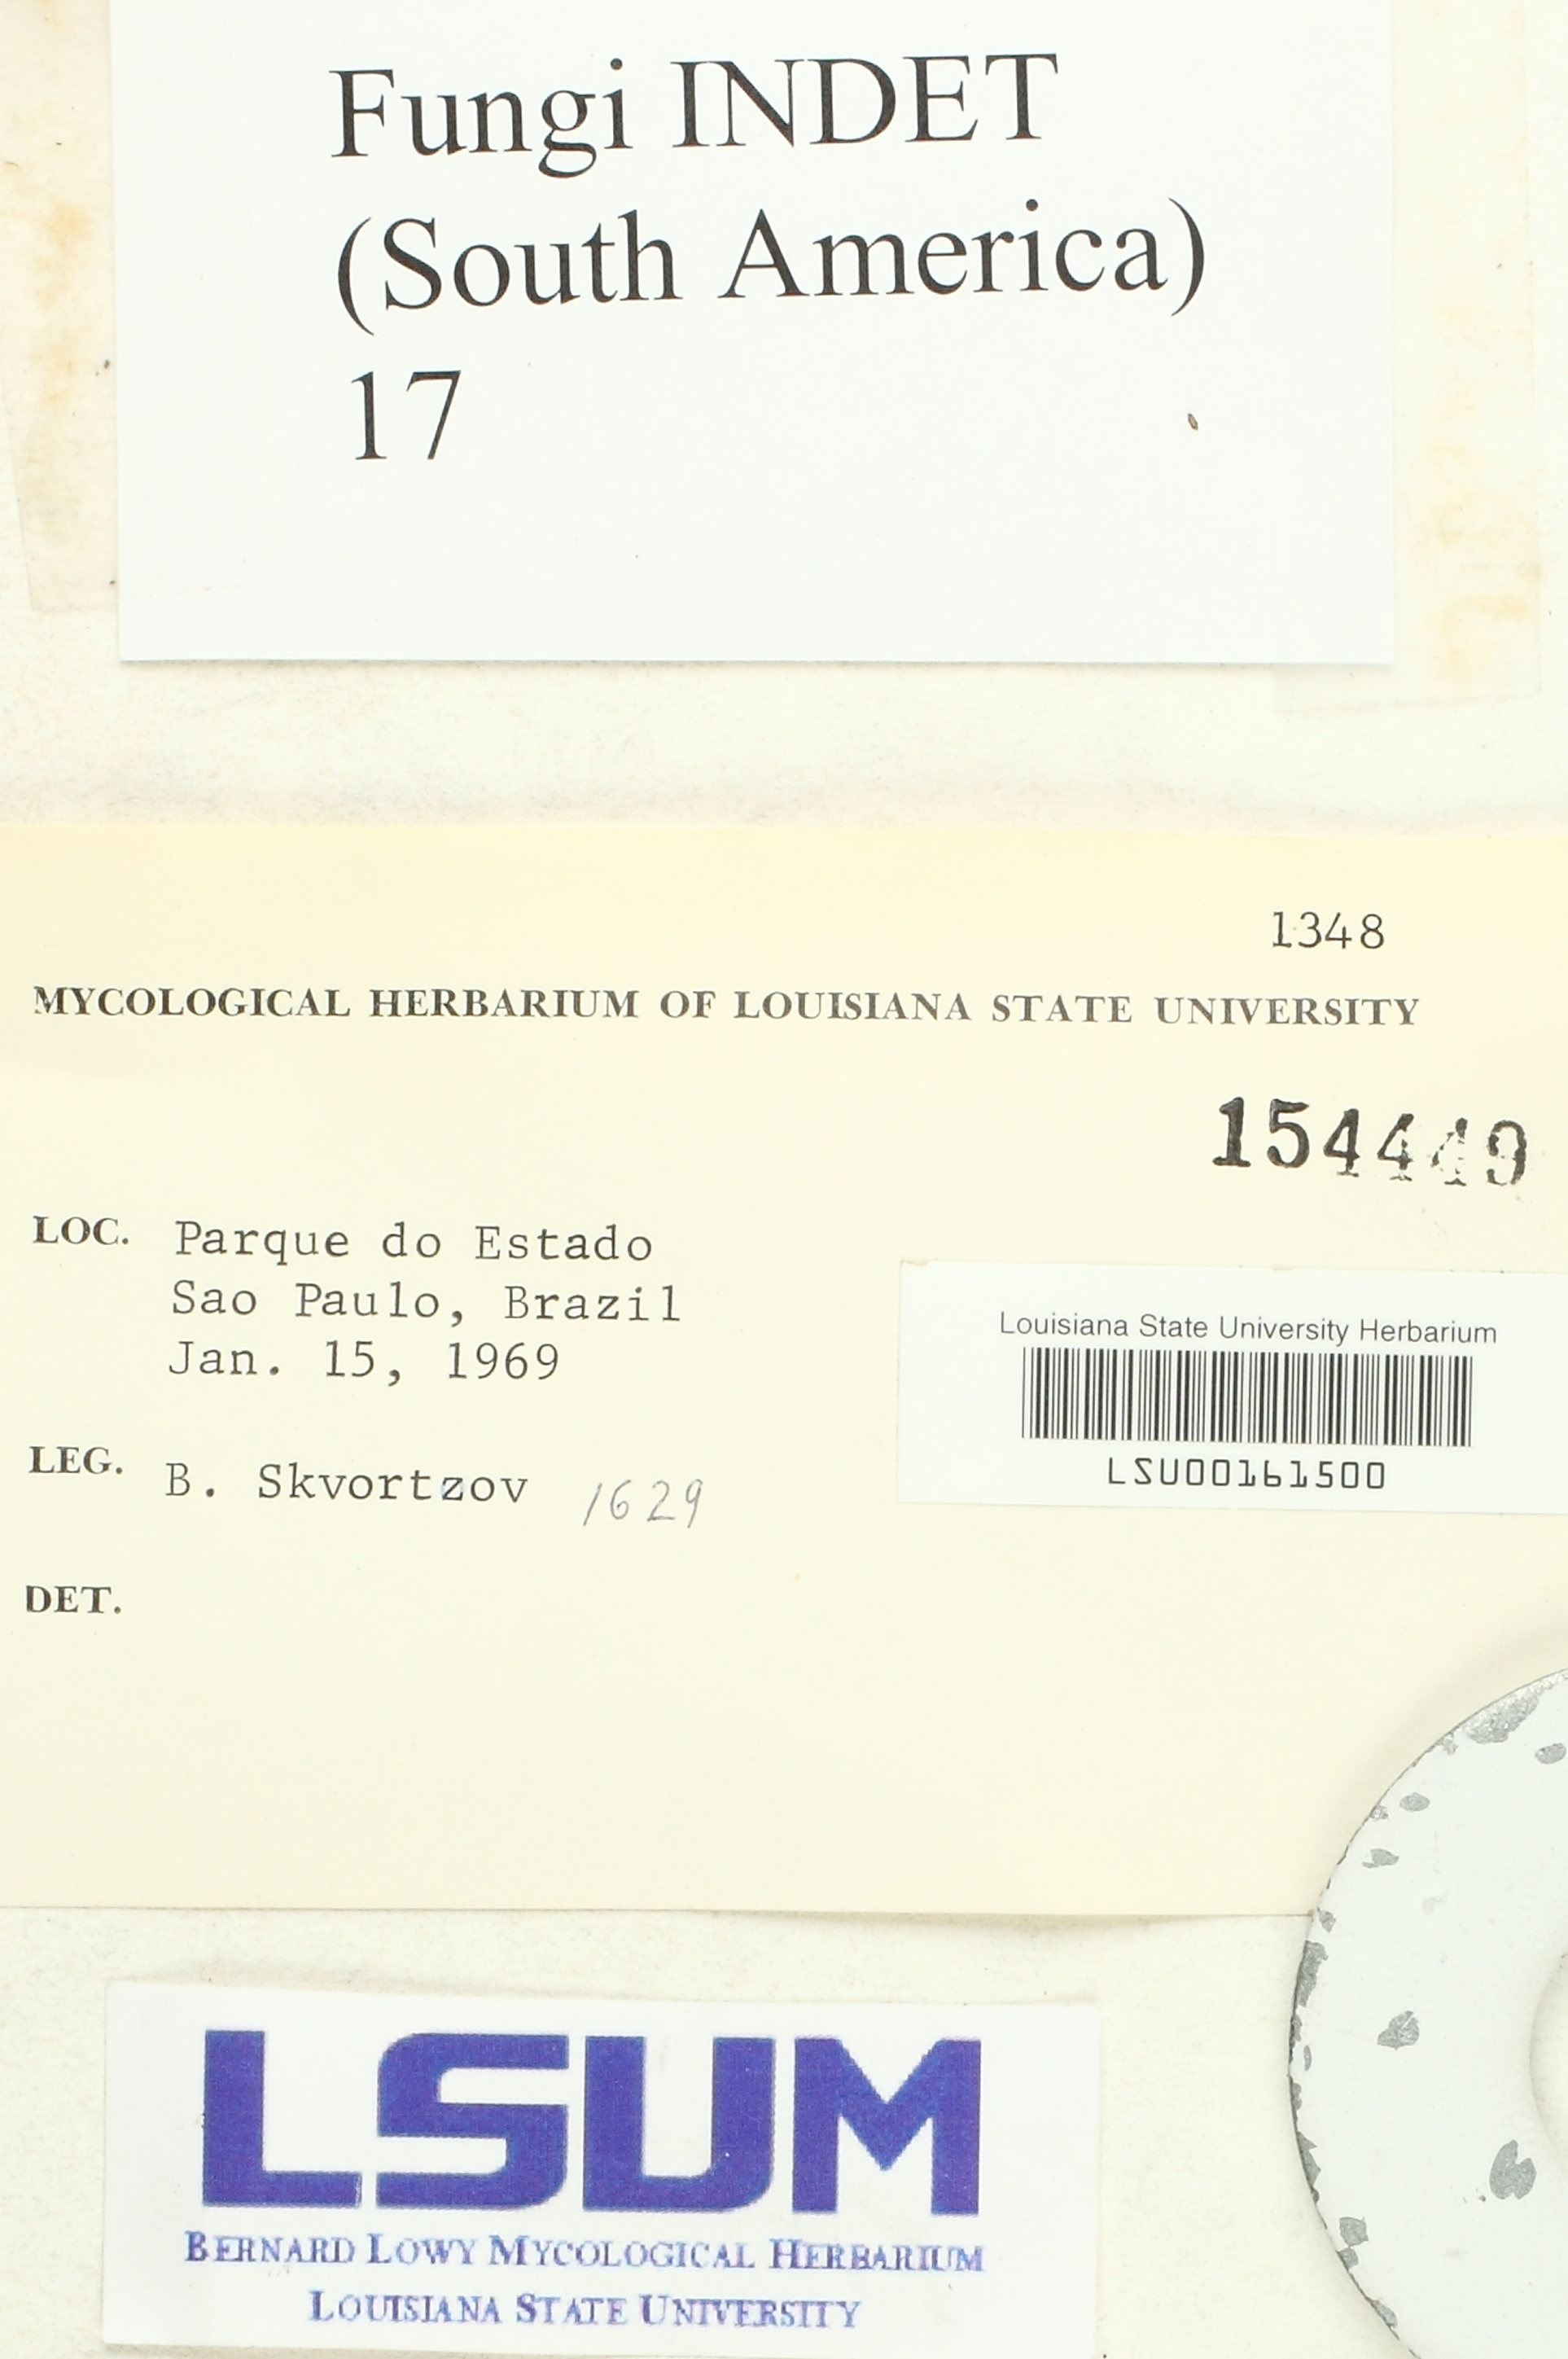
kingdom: Fungi
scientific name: Fungi
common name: Fungi
